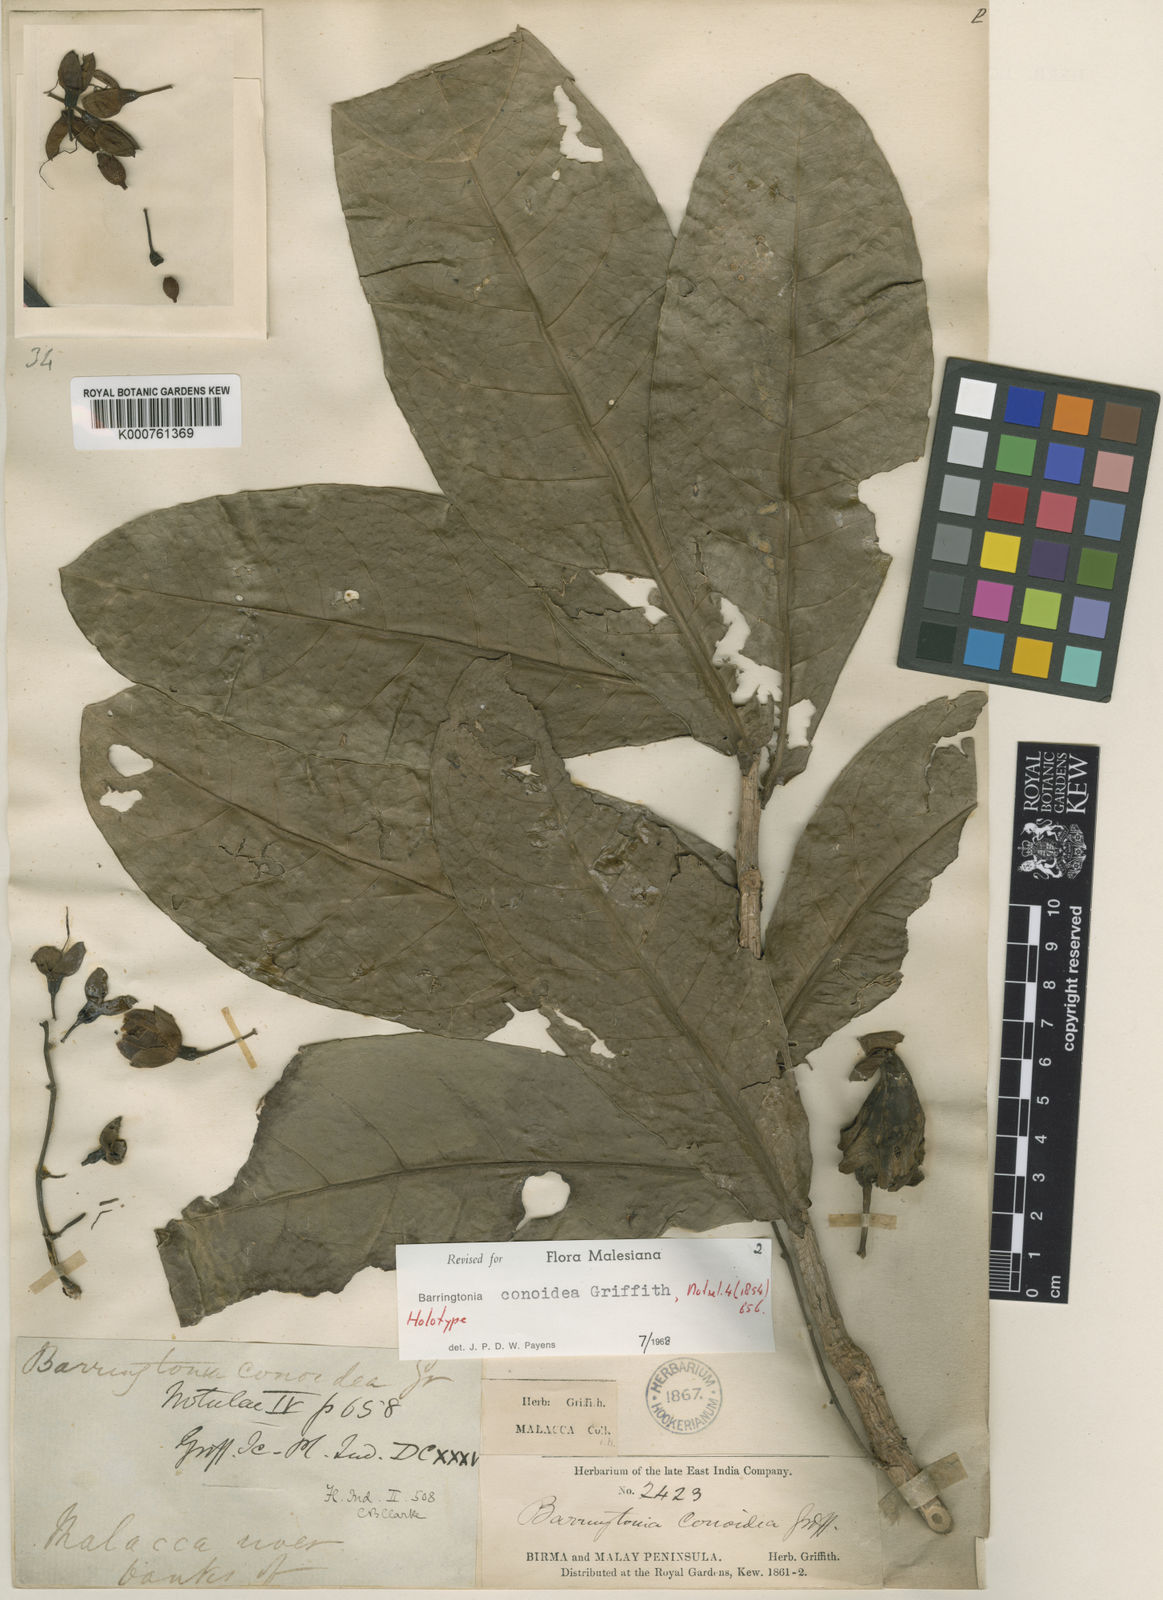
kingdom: Plantae
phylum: Tracheophyta
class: Magnoliopsida
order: Ericales
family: Lecythidaceae
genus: Barringtonia
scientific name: Barringtonia conoidea
